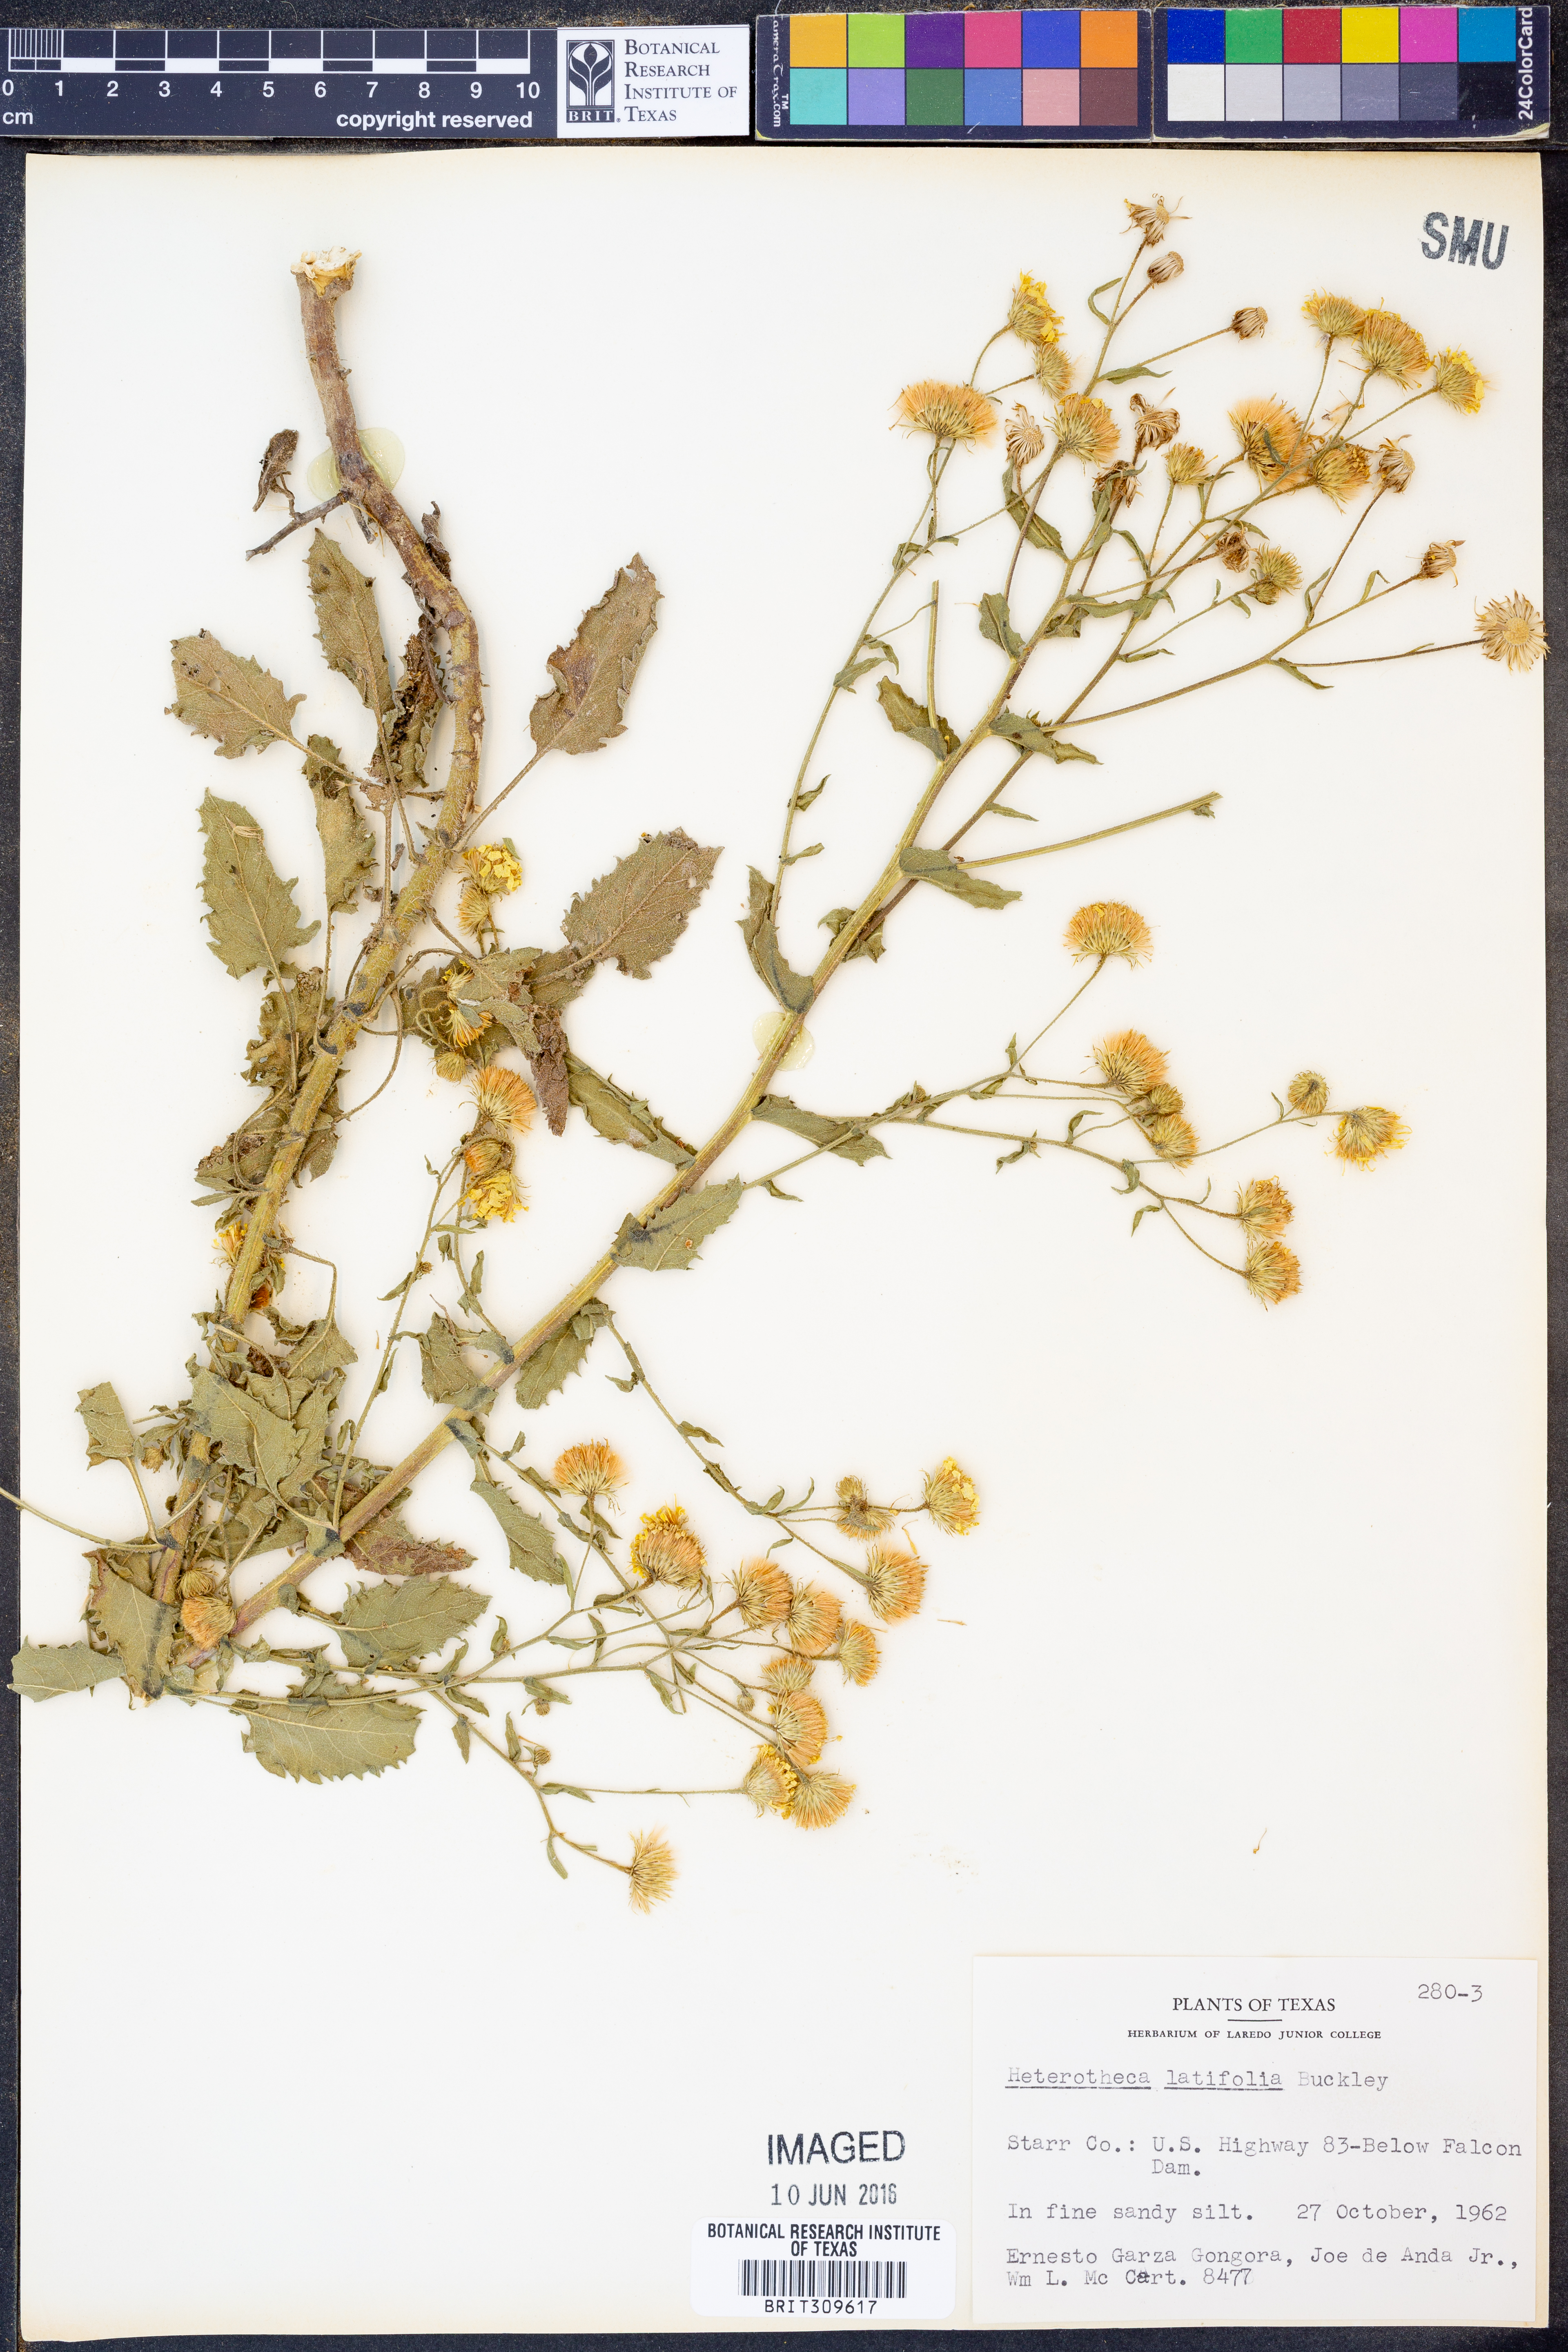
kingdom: Plantae
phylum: Tracheophyta
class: Magnoliopsida
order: Asterales
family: Asteraceae
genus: Heterotheca
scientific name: Heterotheca subaxillaris
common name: Camphorweed
